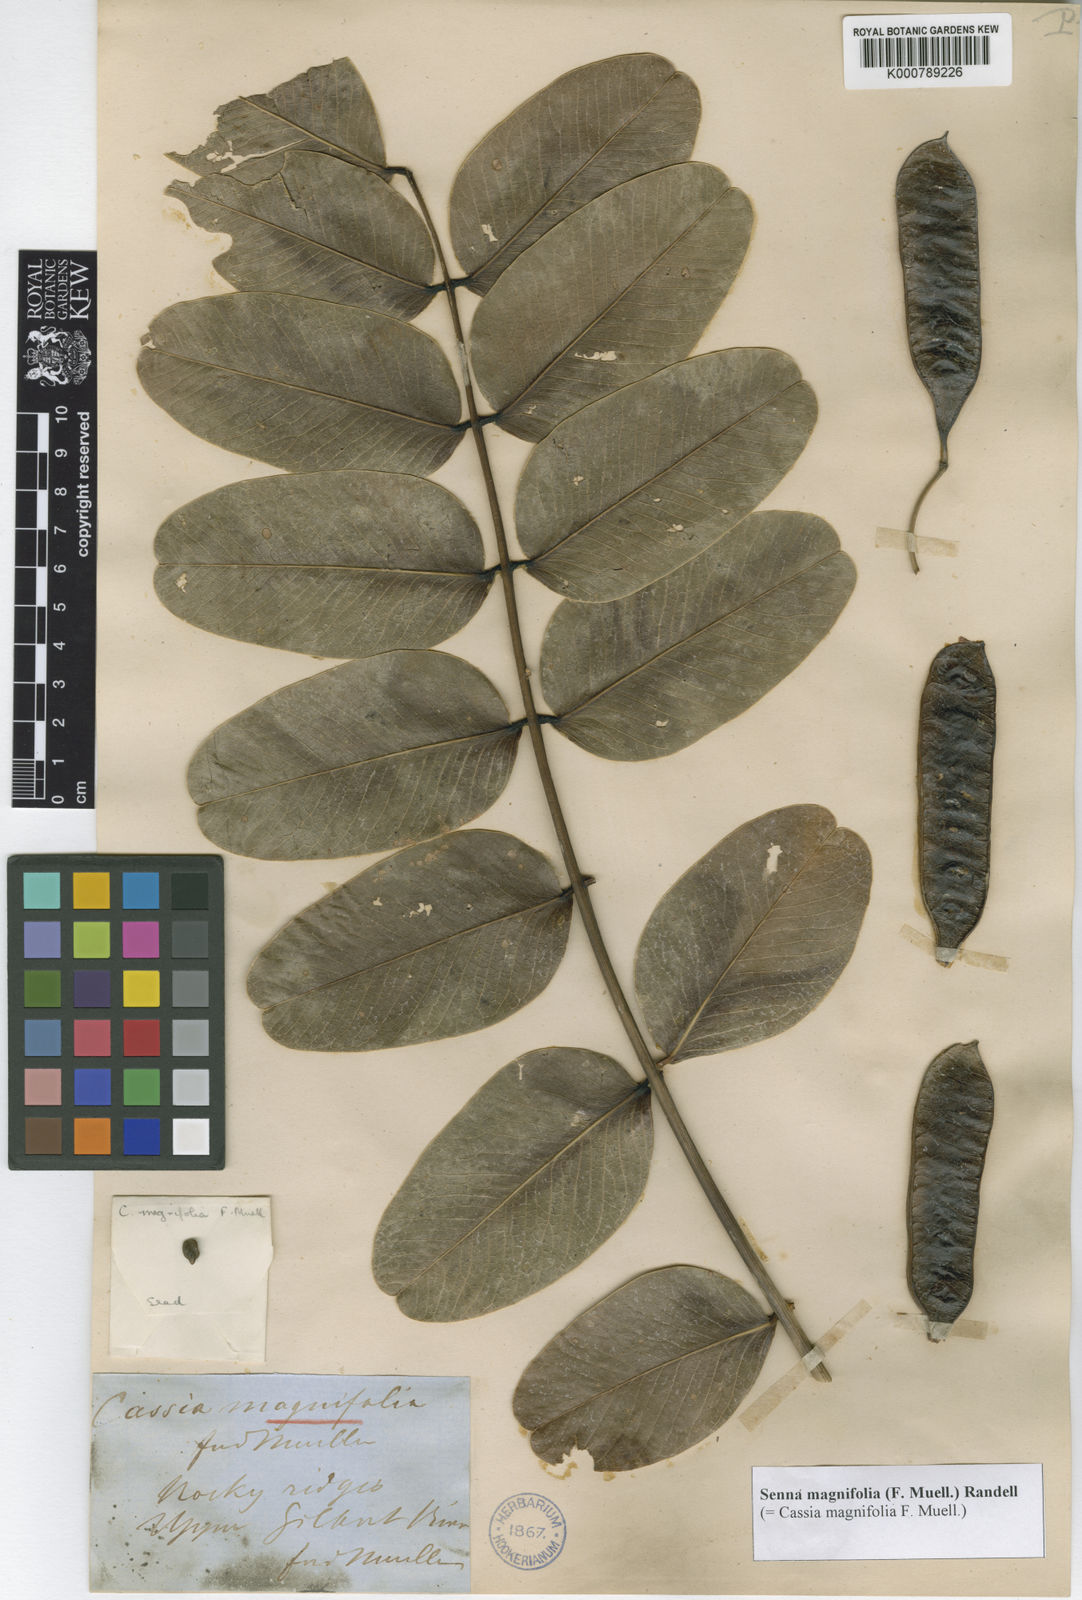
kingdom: Plantae
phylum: Tracheophyta
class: Magnoliopsida
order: Fabales
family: Fabaceae
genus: Senna
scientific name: Senna magnifolia
